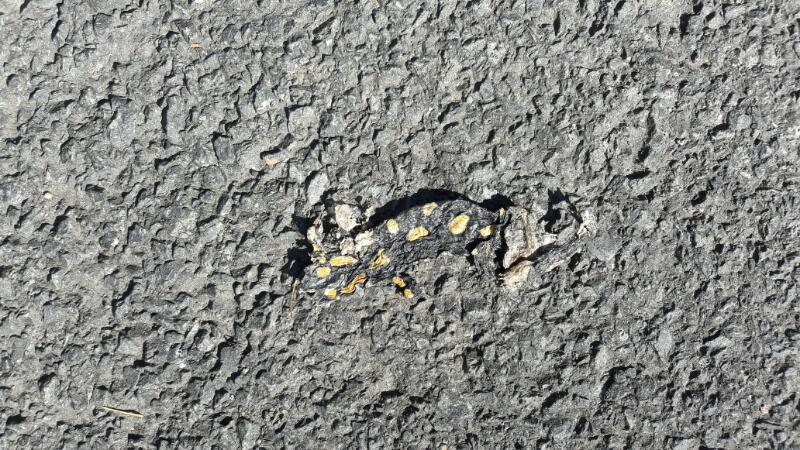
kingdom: Animalia
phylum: Chordata
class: Amphibia
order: Caudata
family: Salamandridae
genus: Salamandra
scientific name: Salamandra salamandra
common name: Fire salamander
